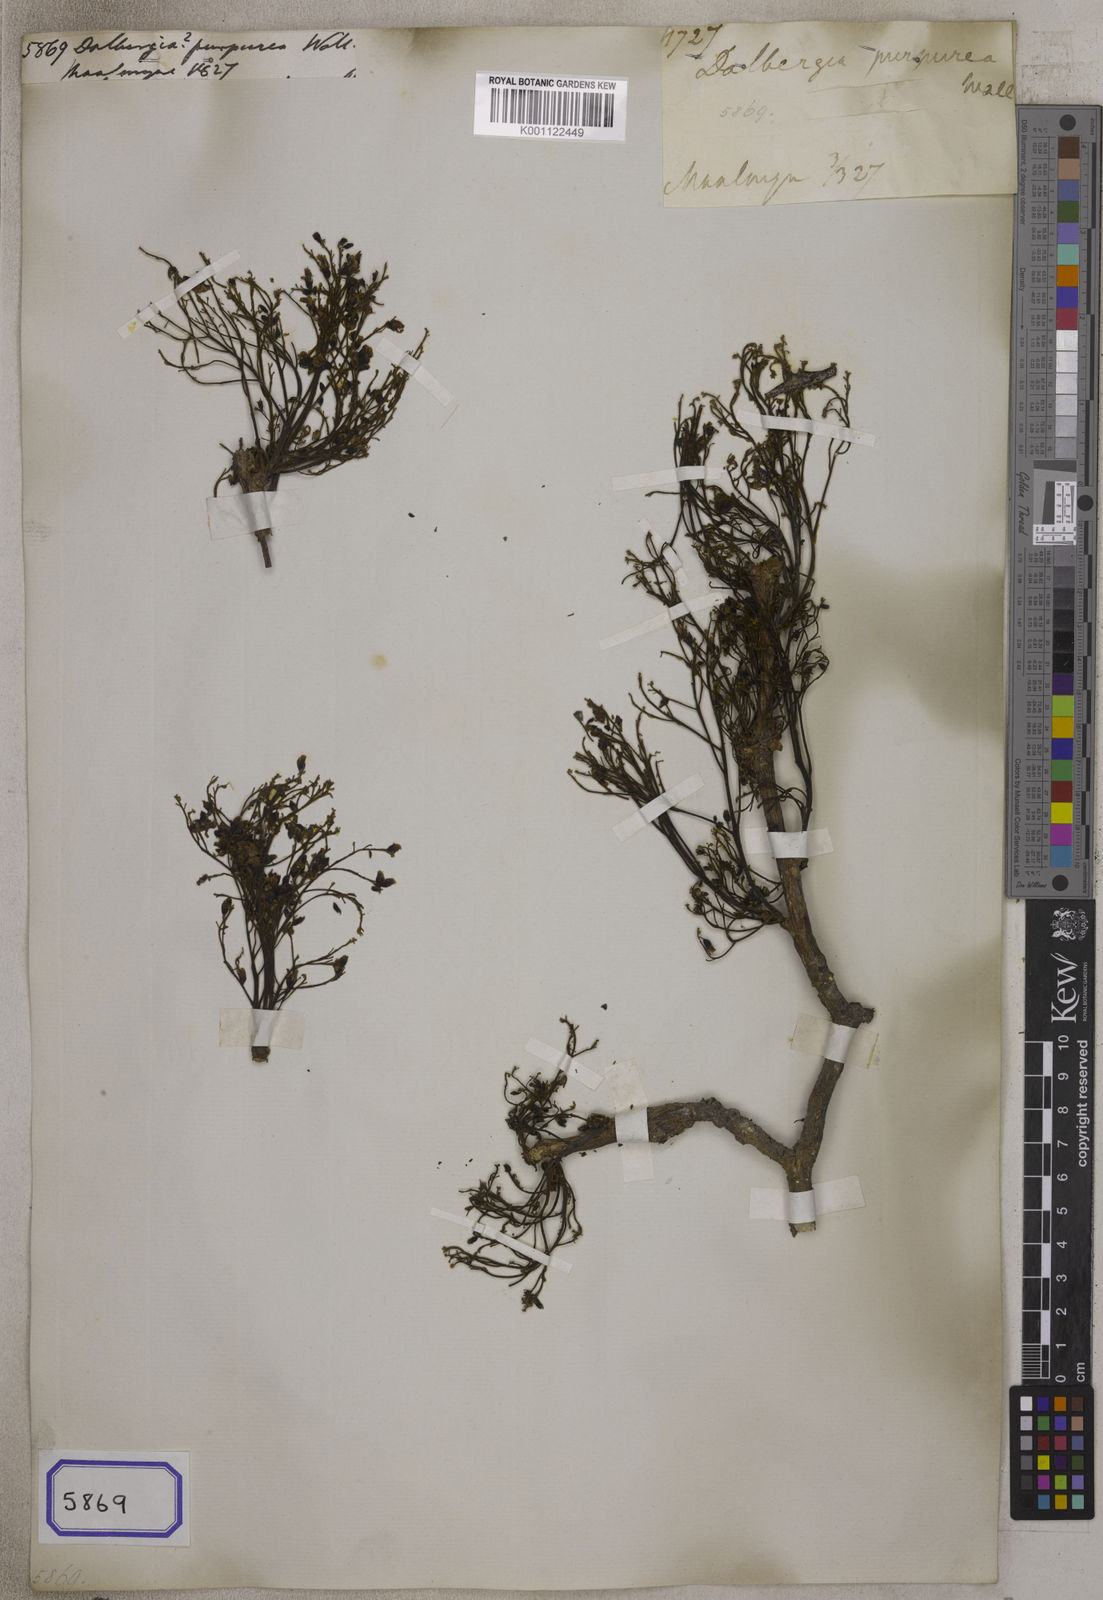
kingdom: Plantae
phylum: Tracheophyta
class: Magnoliopsida
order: Fabales
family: Fabaceae
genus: Dalbergia
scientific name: Dalbergia
